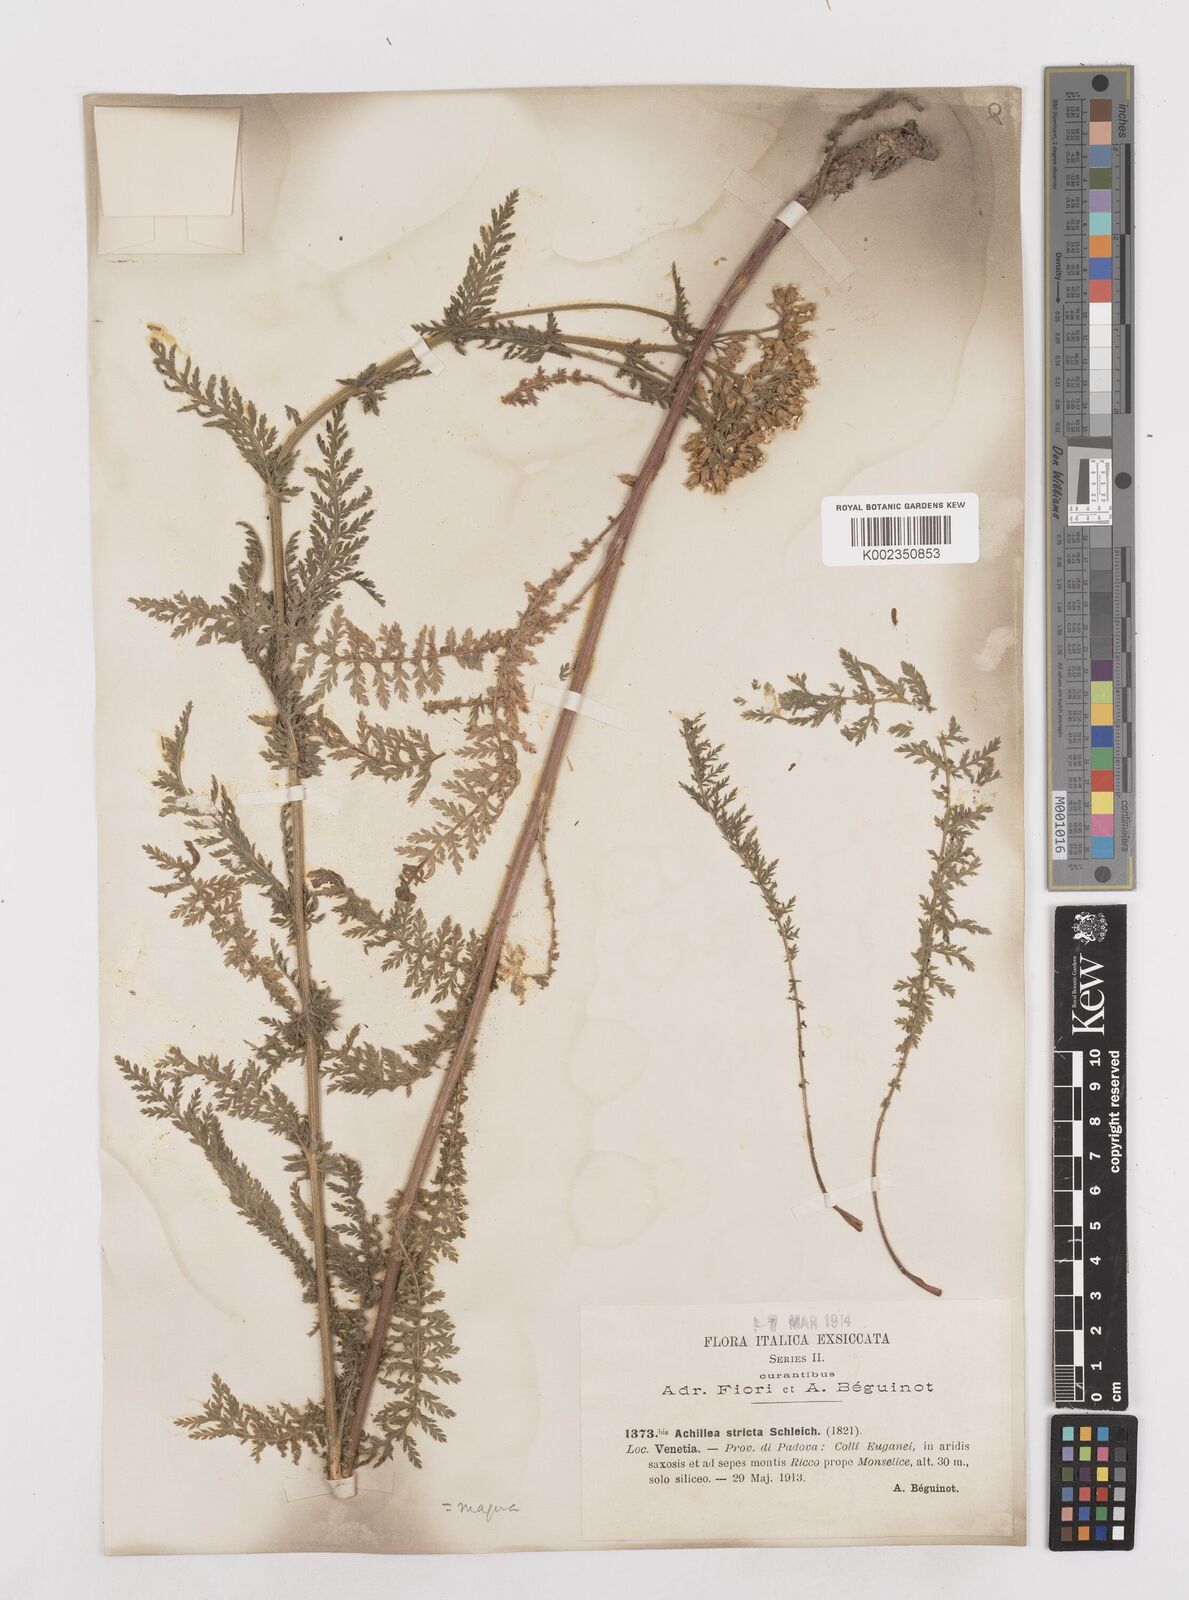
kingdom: Plantae
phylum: Tracheophyta
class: Magnoliopsida
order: Asterales
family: Asteraceae
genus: Achillea
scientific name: Achillea distans
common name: Tall yarrow
